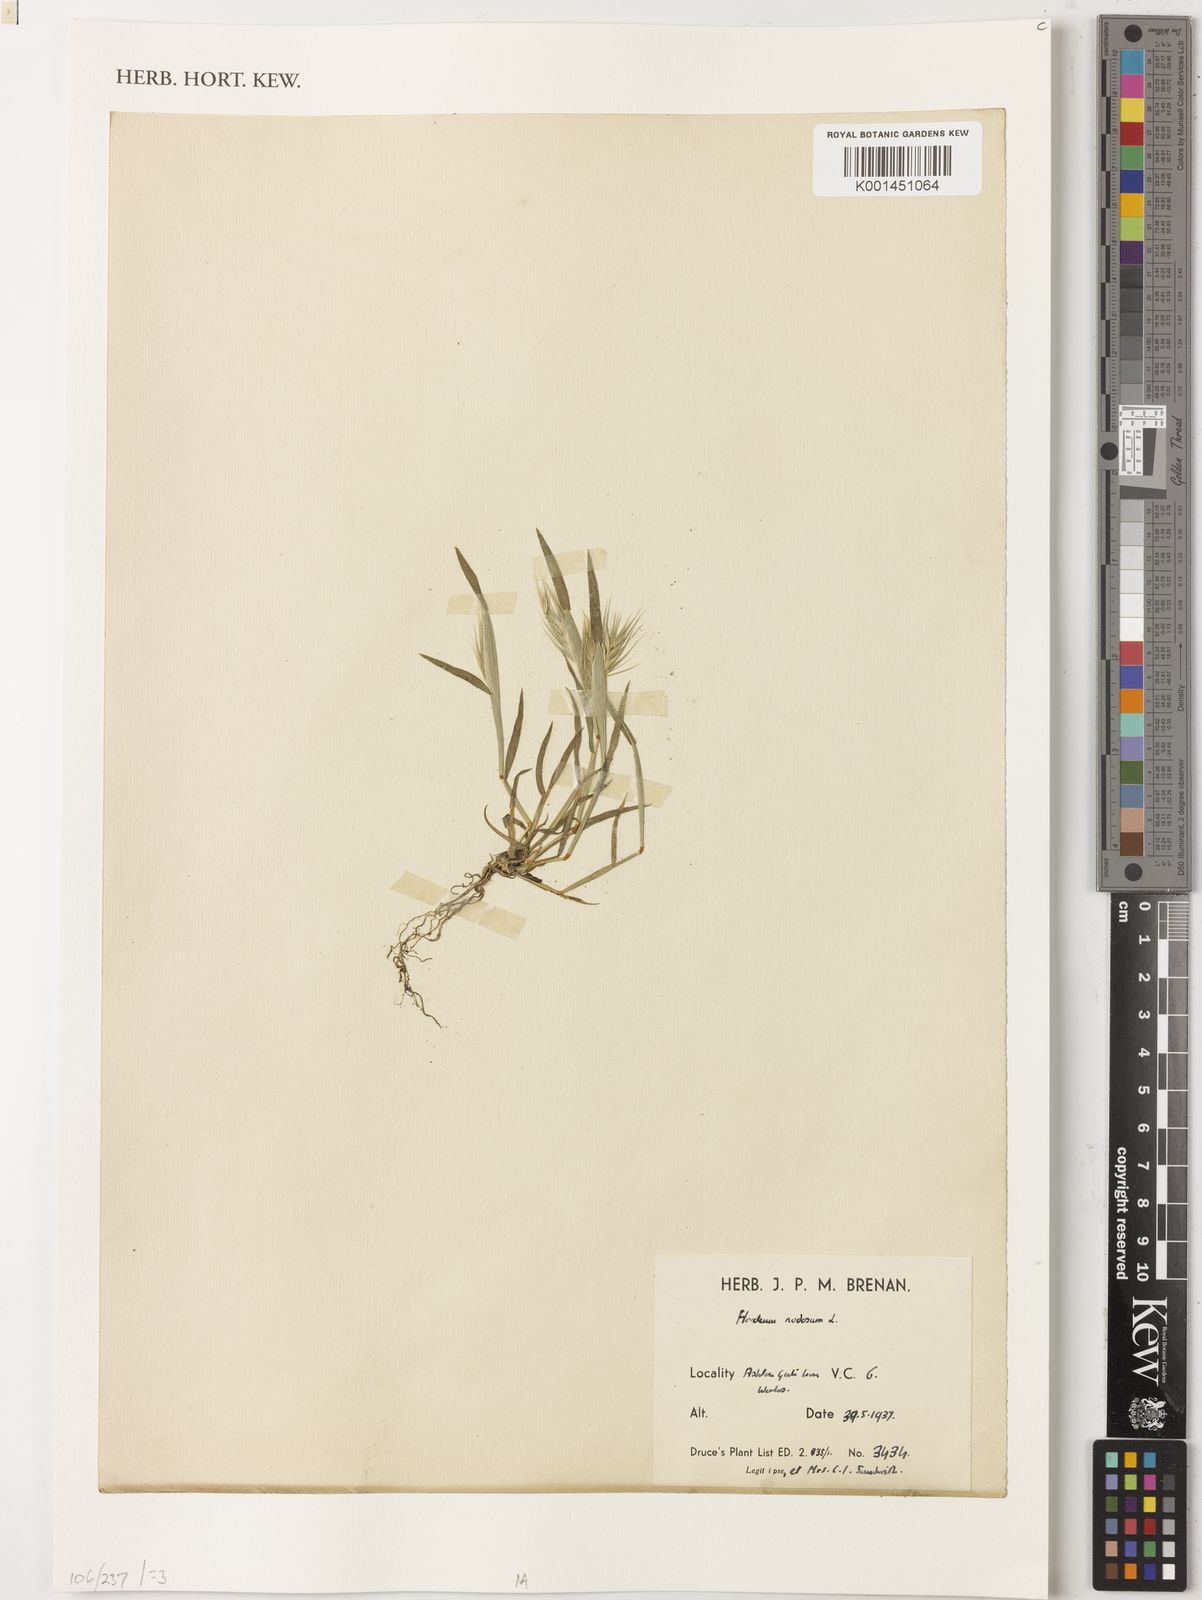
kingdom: Plantae
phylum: Tracheophyta
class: Liliopsida
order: Poales
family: Poaceae
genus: Hordeum
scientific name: Hordeum bulbosum
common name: Bulbous barley
